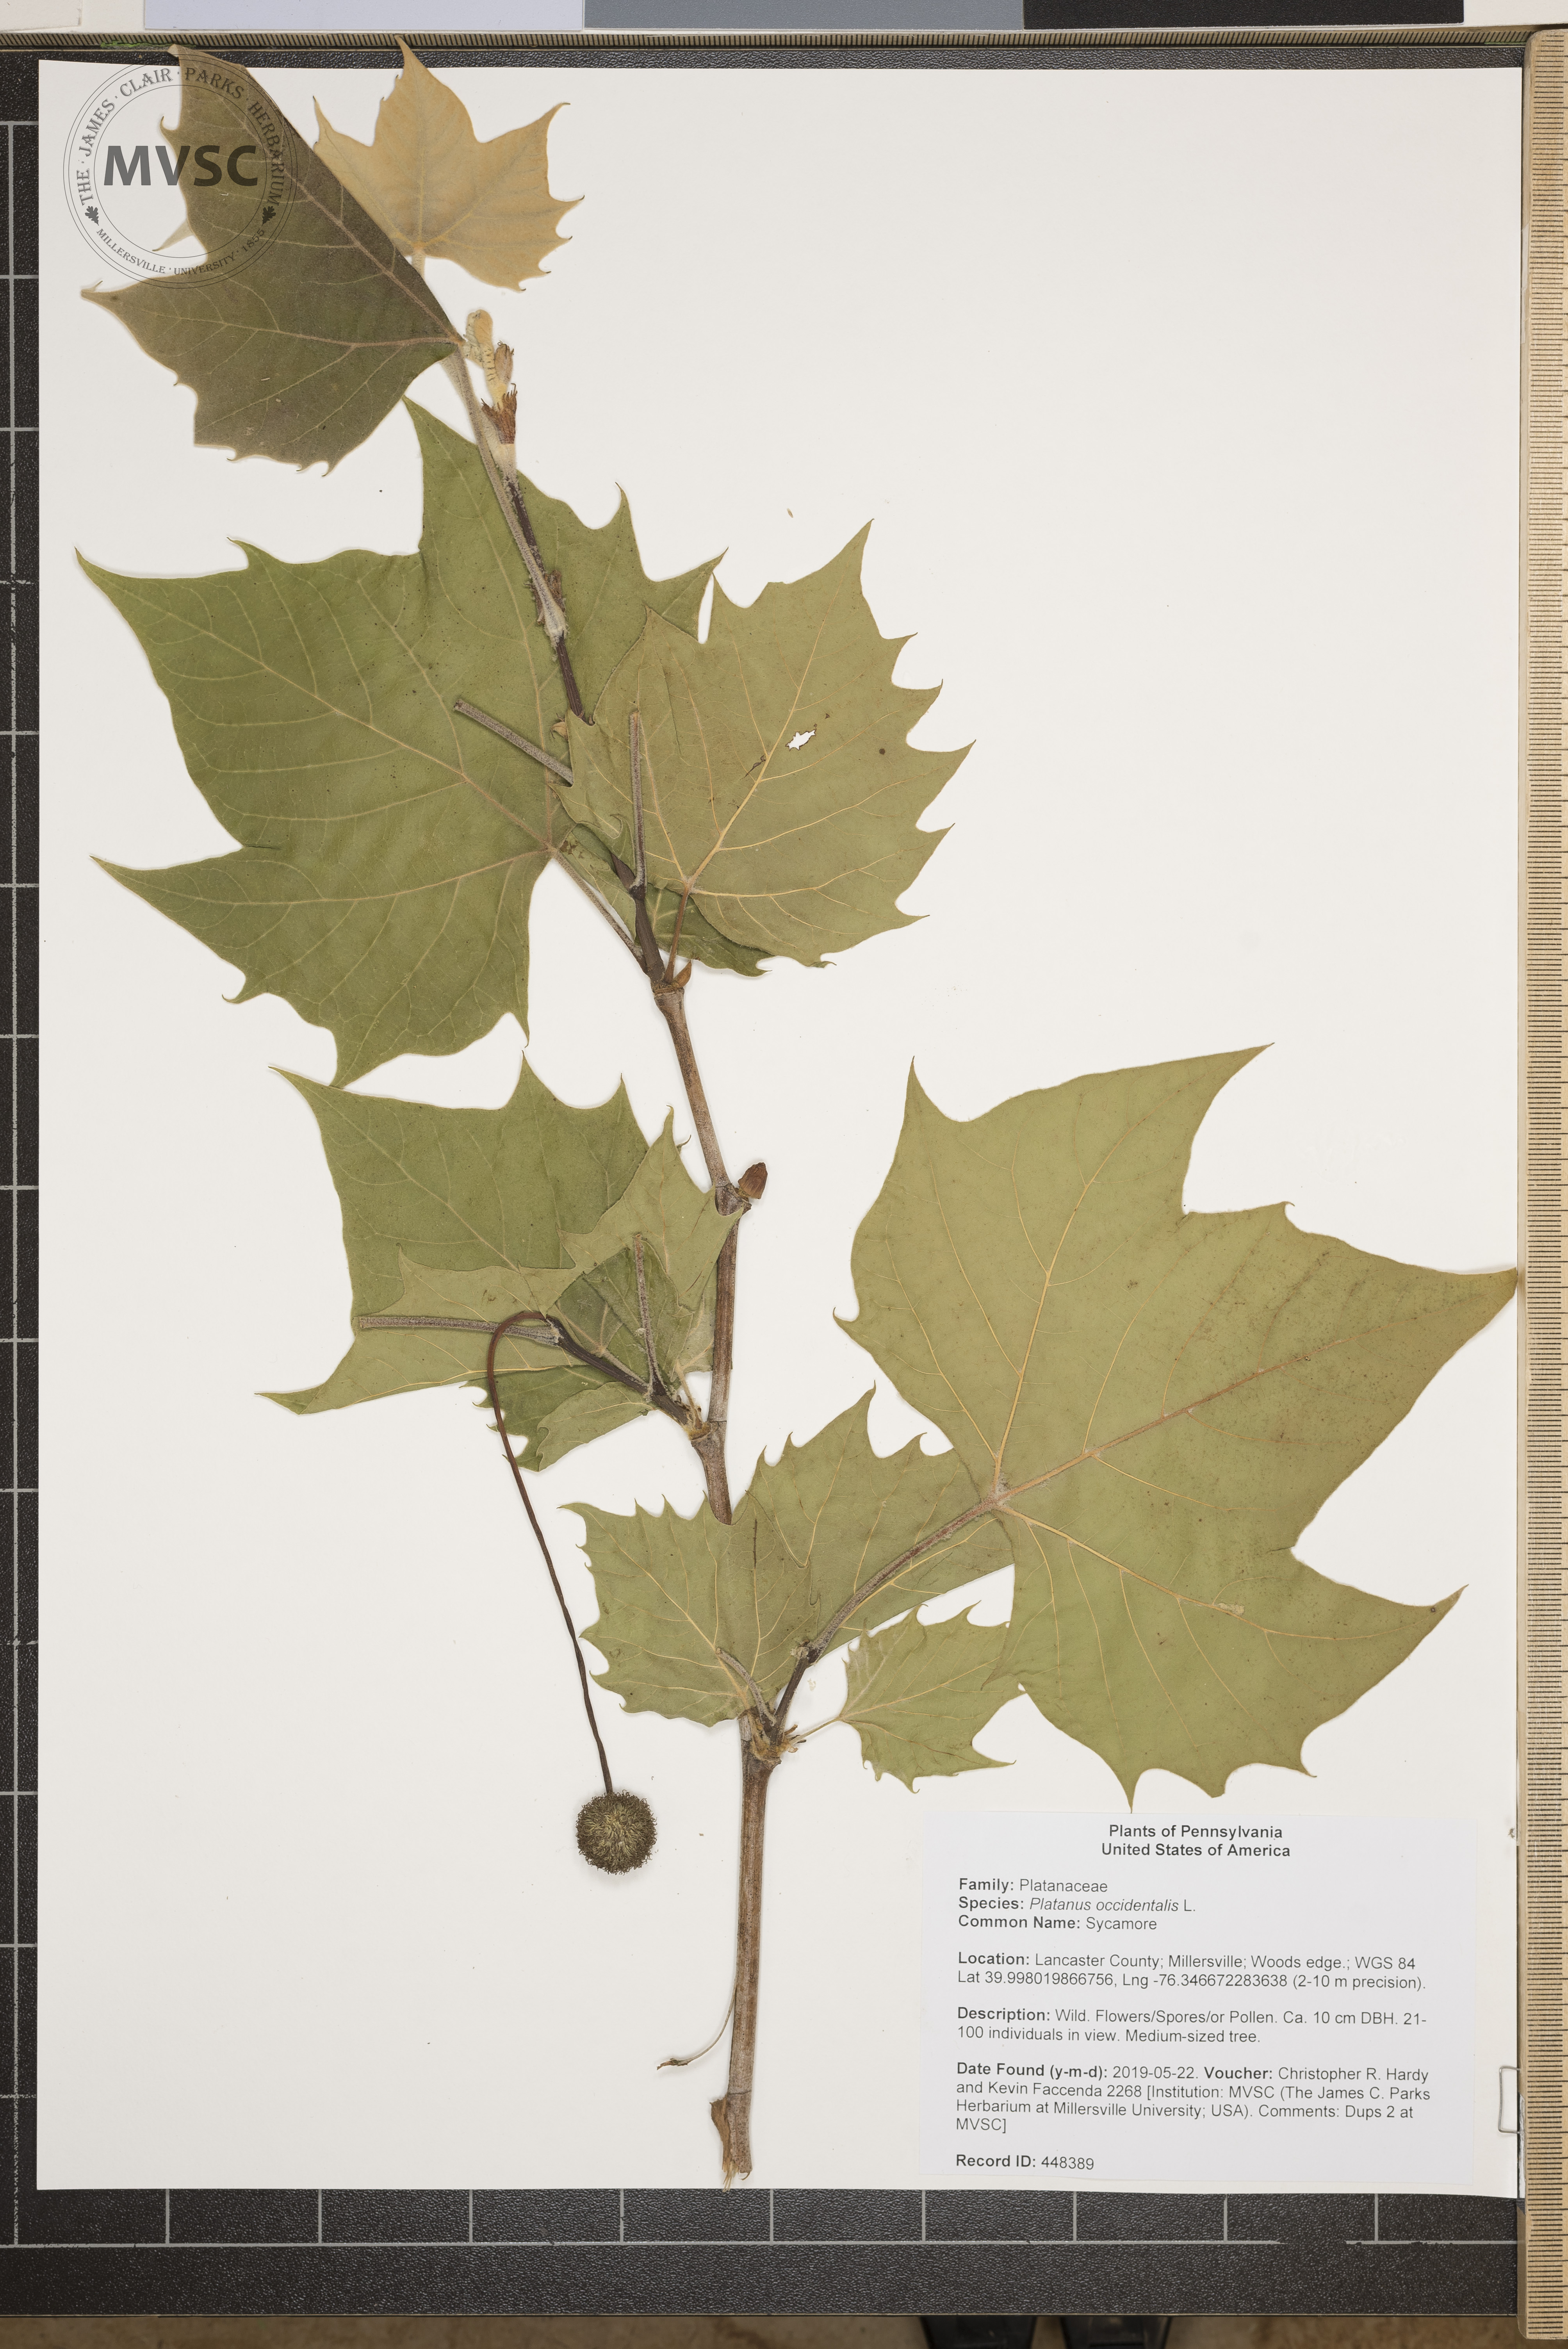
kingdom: Plantae
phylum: Tracheophyta
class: Magnoliopsida
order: Proteales
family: Platanaceae
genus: Platanus
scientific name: Platanus occidentalis
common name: Sycamore
